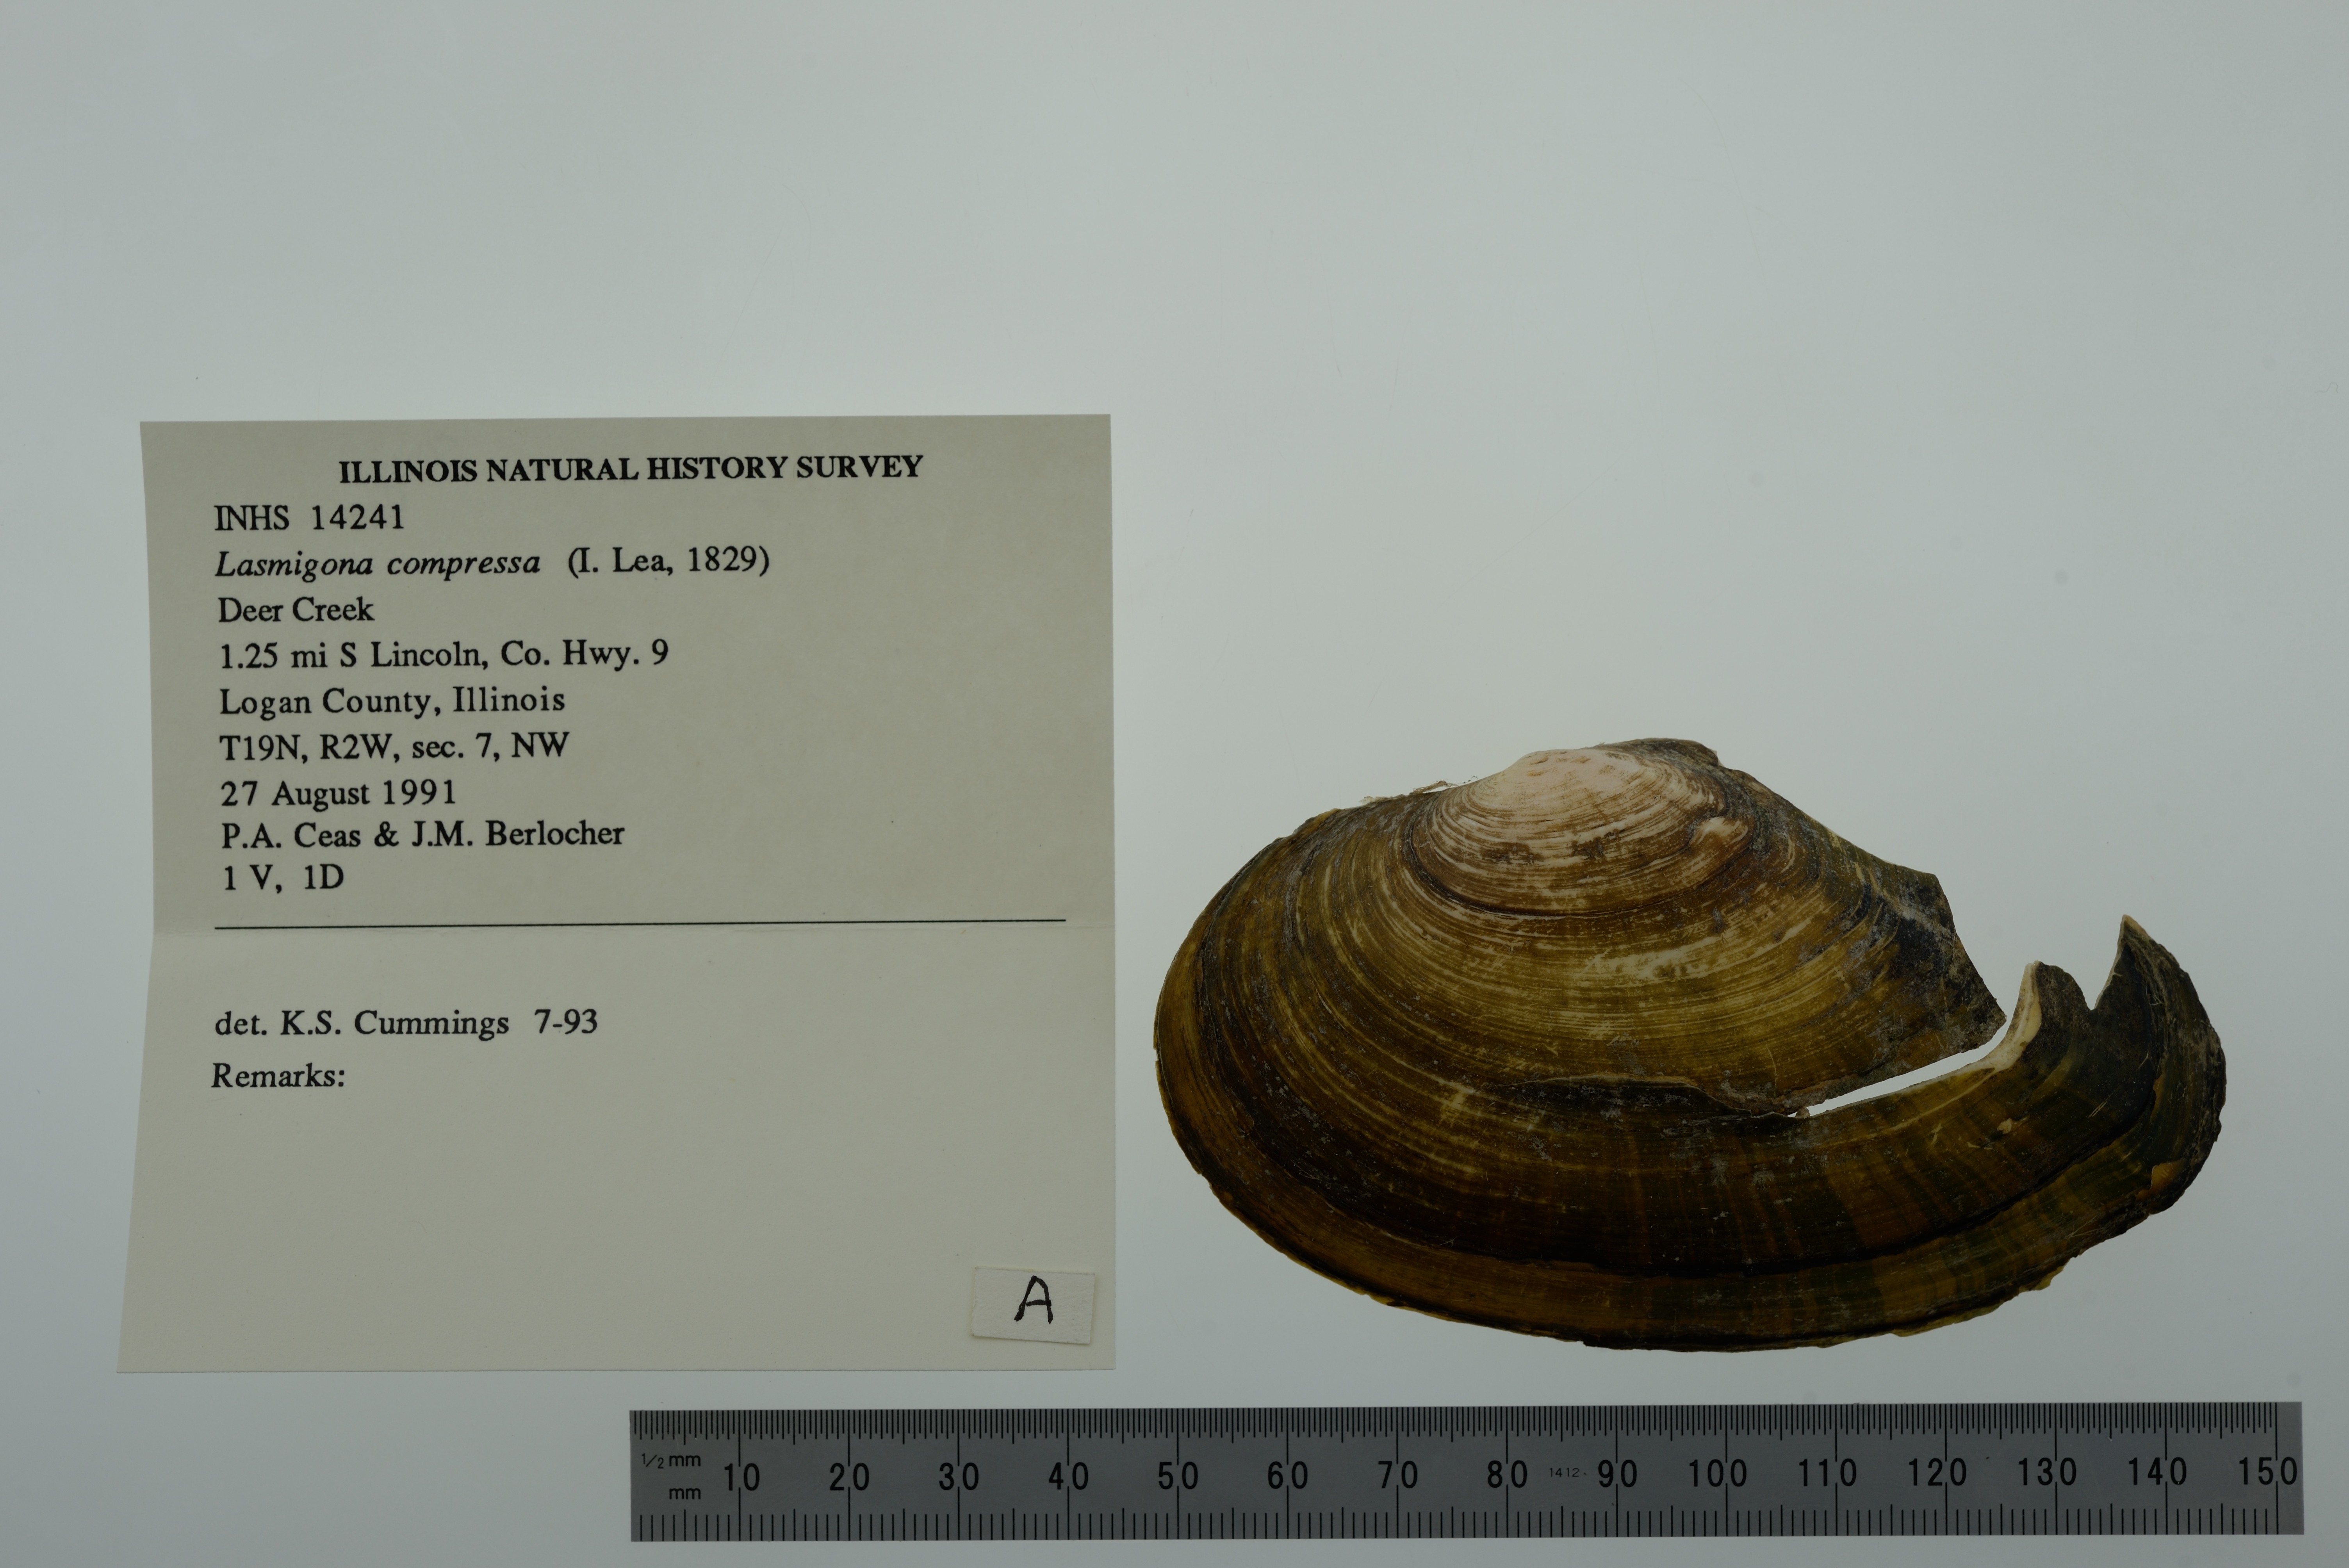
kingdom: Animalia
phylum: Mollusca
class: Bivalvia
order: Unionida
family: Unionidae
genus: Lasmigona
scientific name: Lasmigona compressa
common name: Creek heelsplitter
